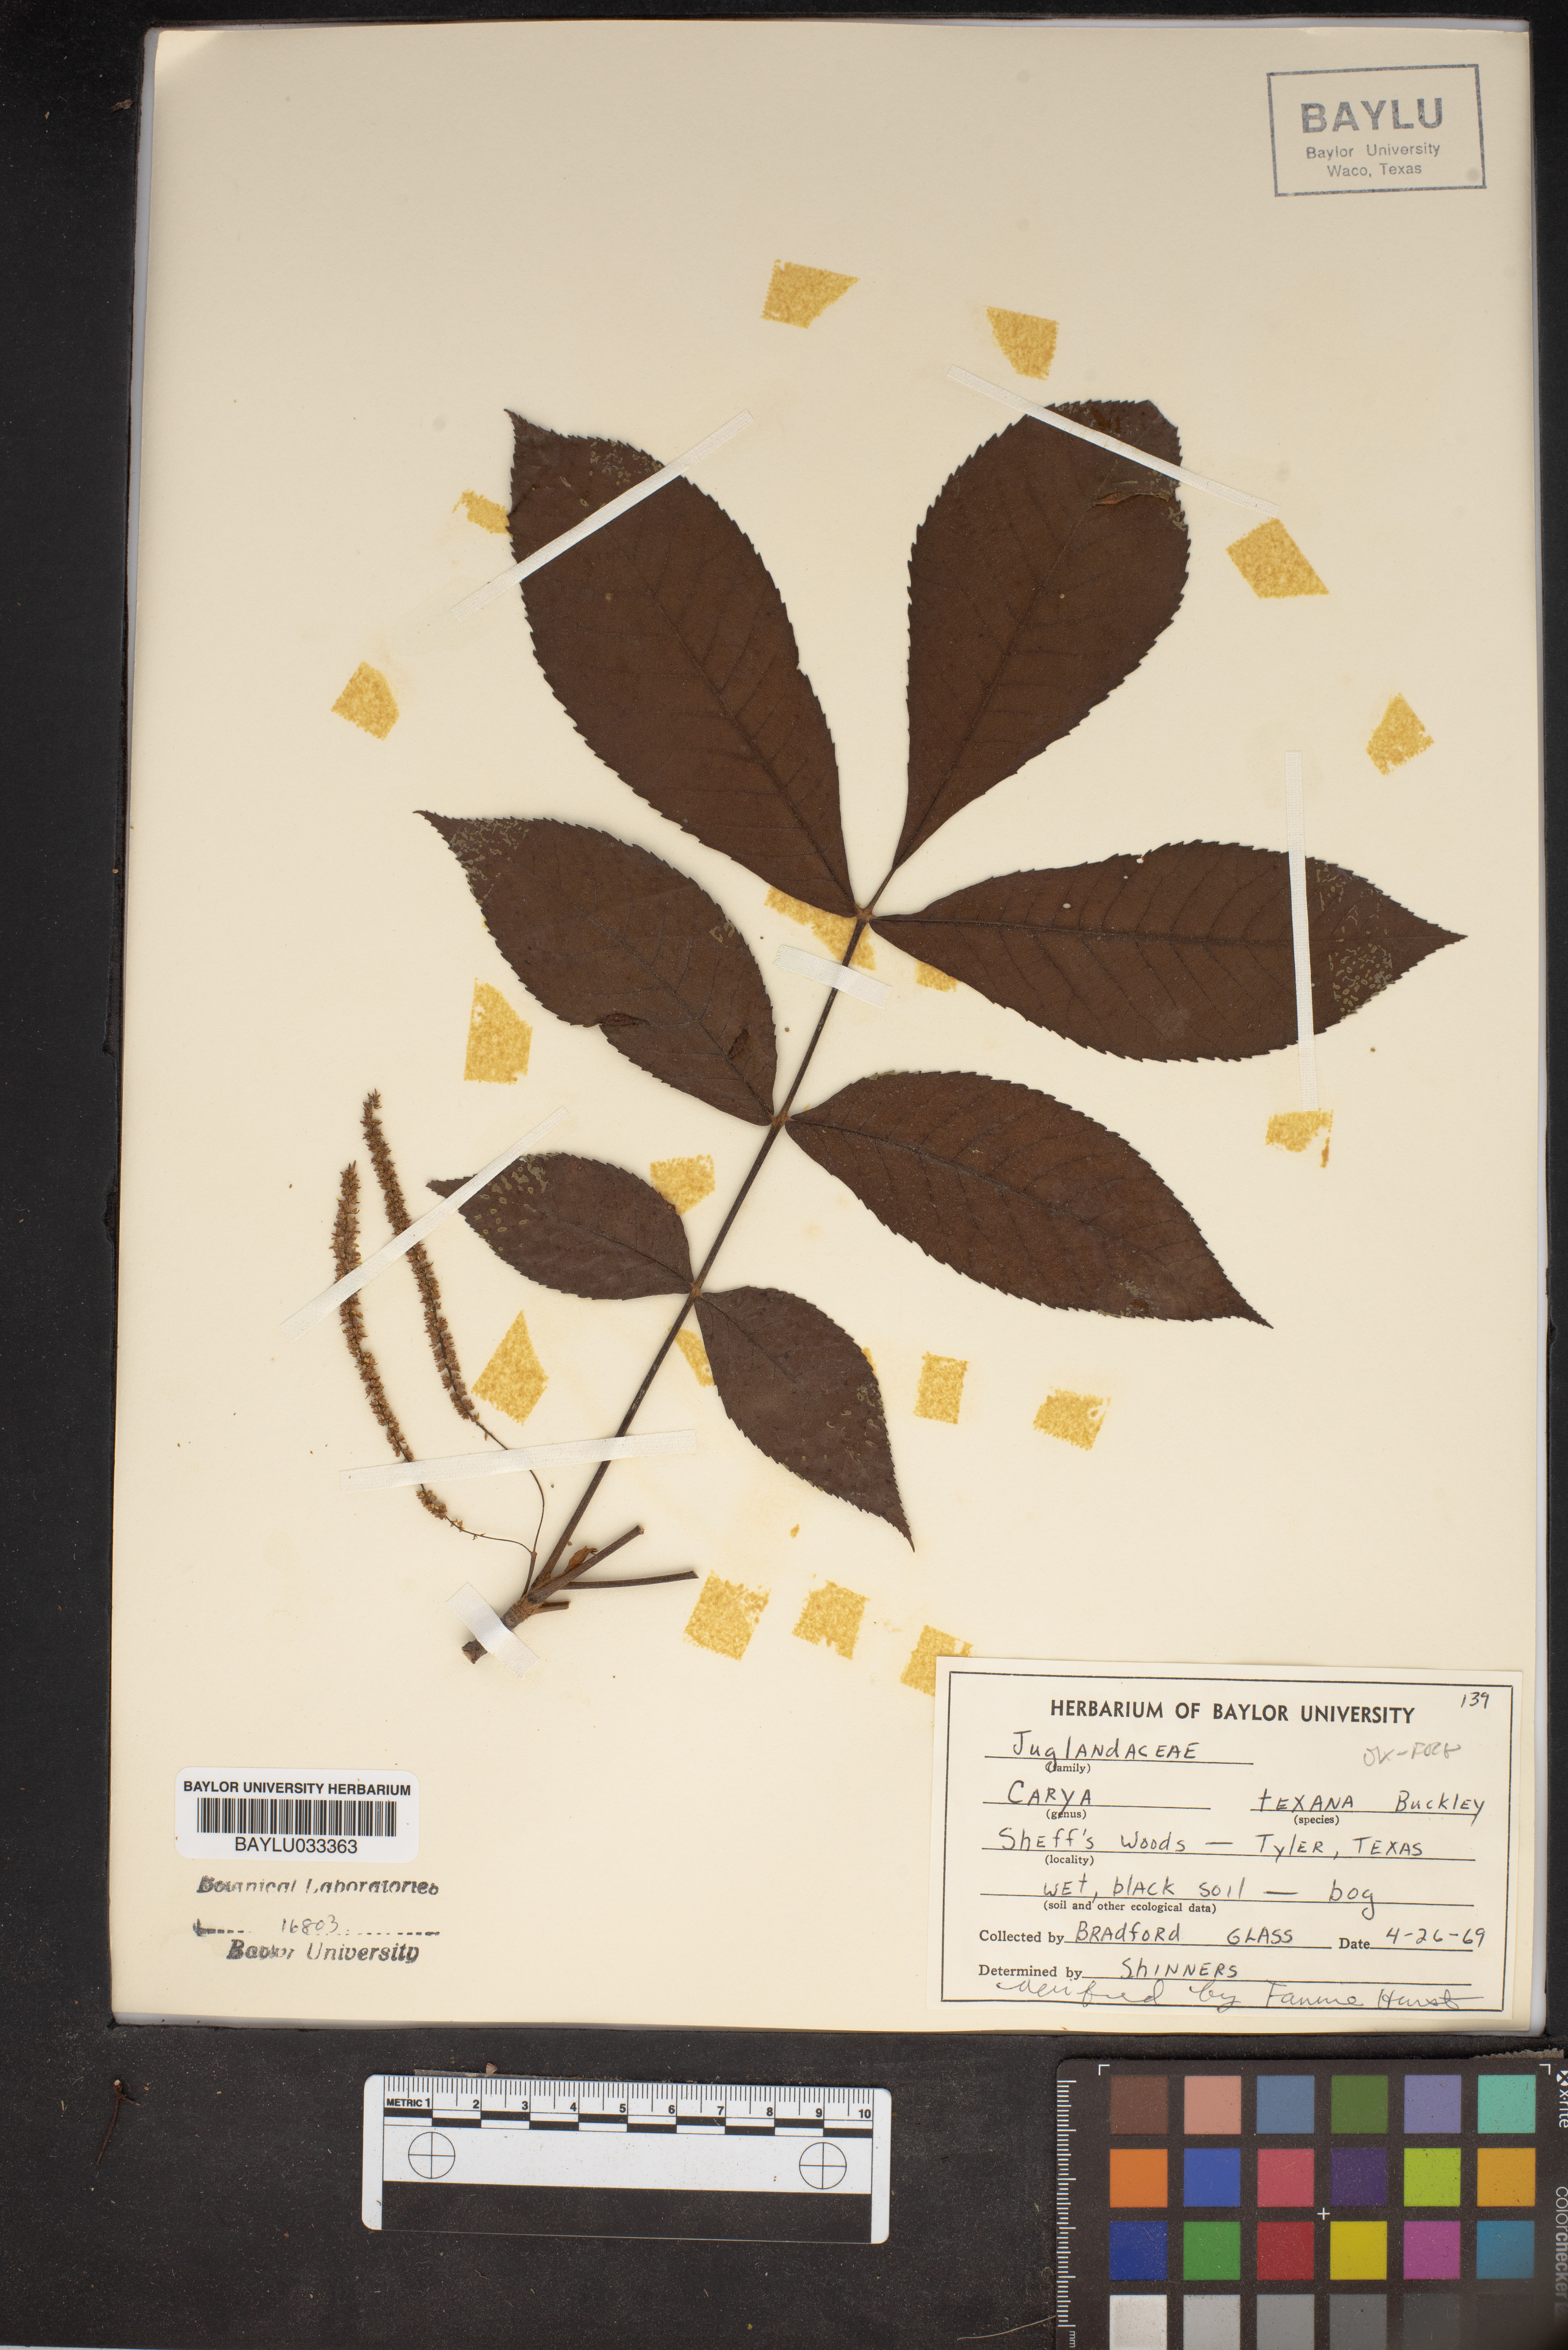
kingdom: Plantae
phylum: Tracheophyta
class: Magnoliopsida
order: Fagales
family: Juglandaceae
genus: Carya
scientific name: Carya texana
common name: Black hickory
